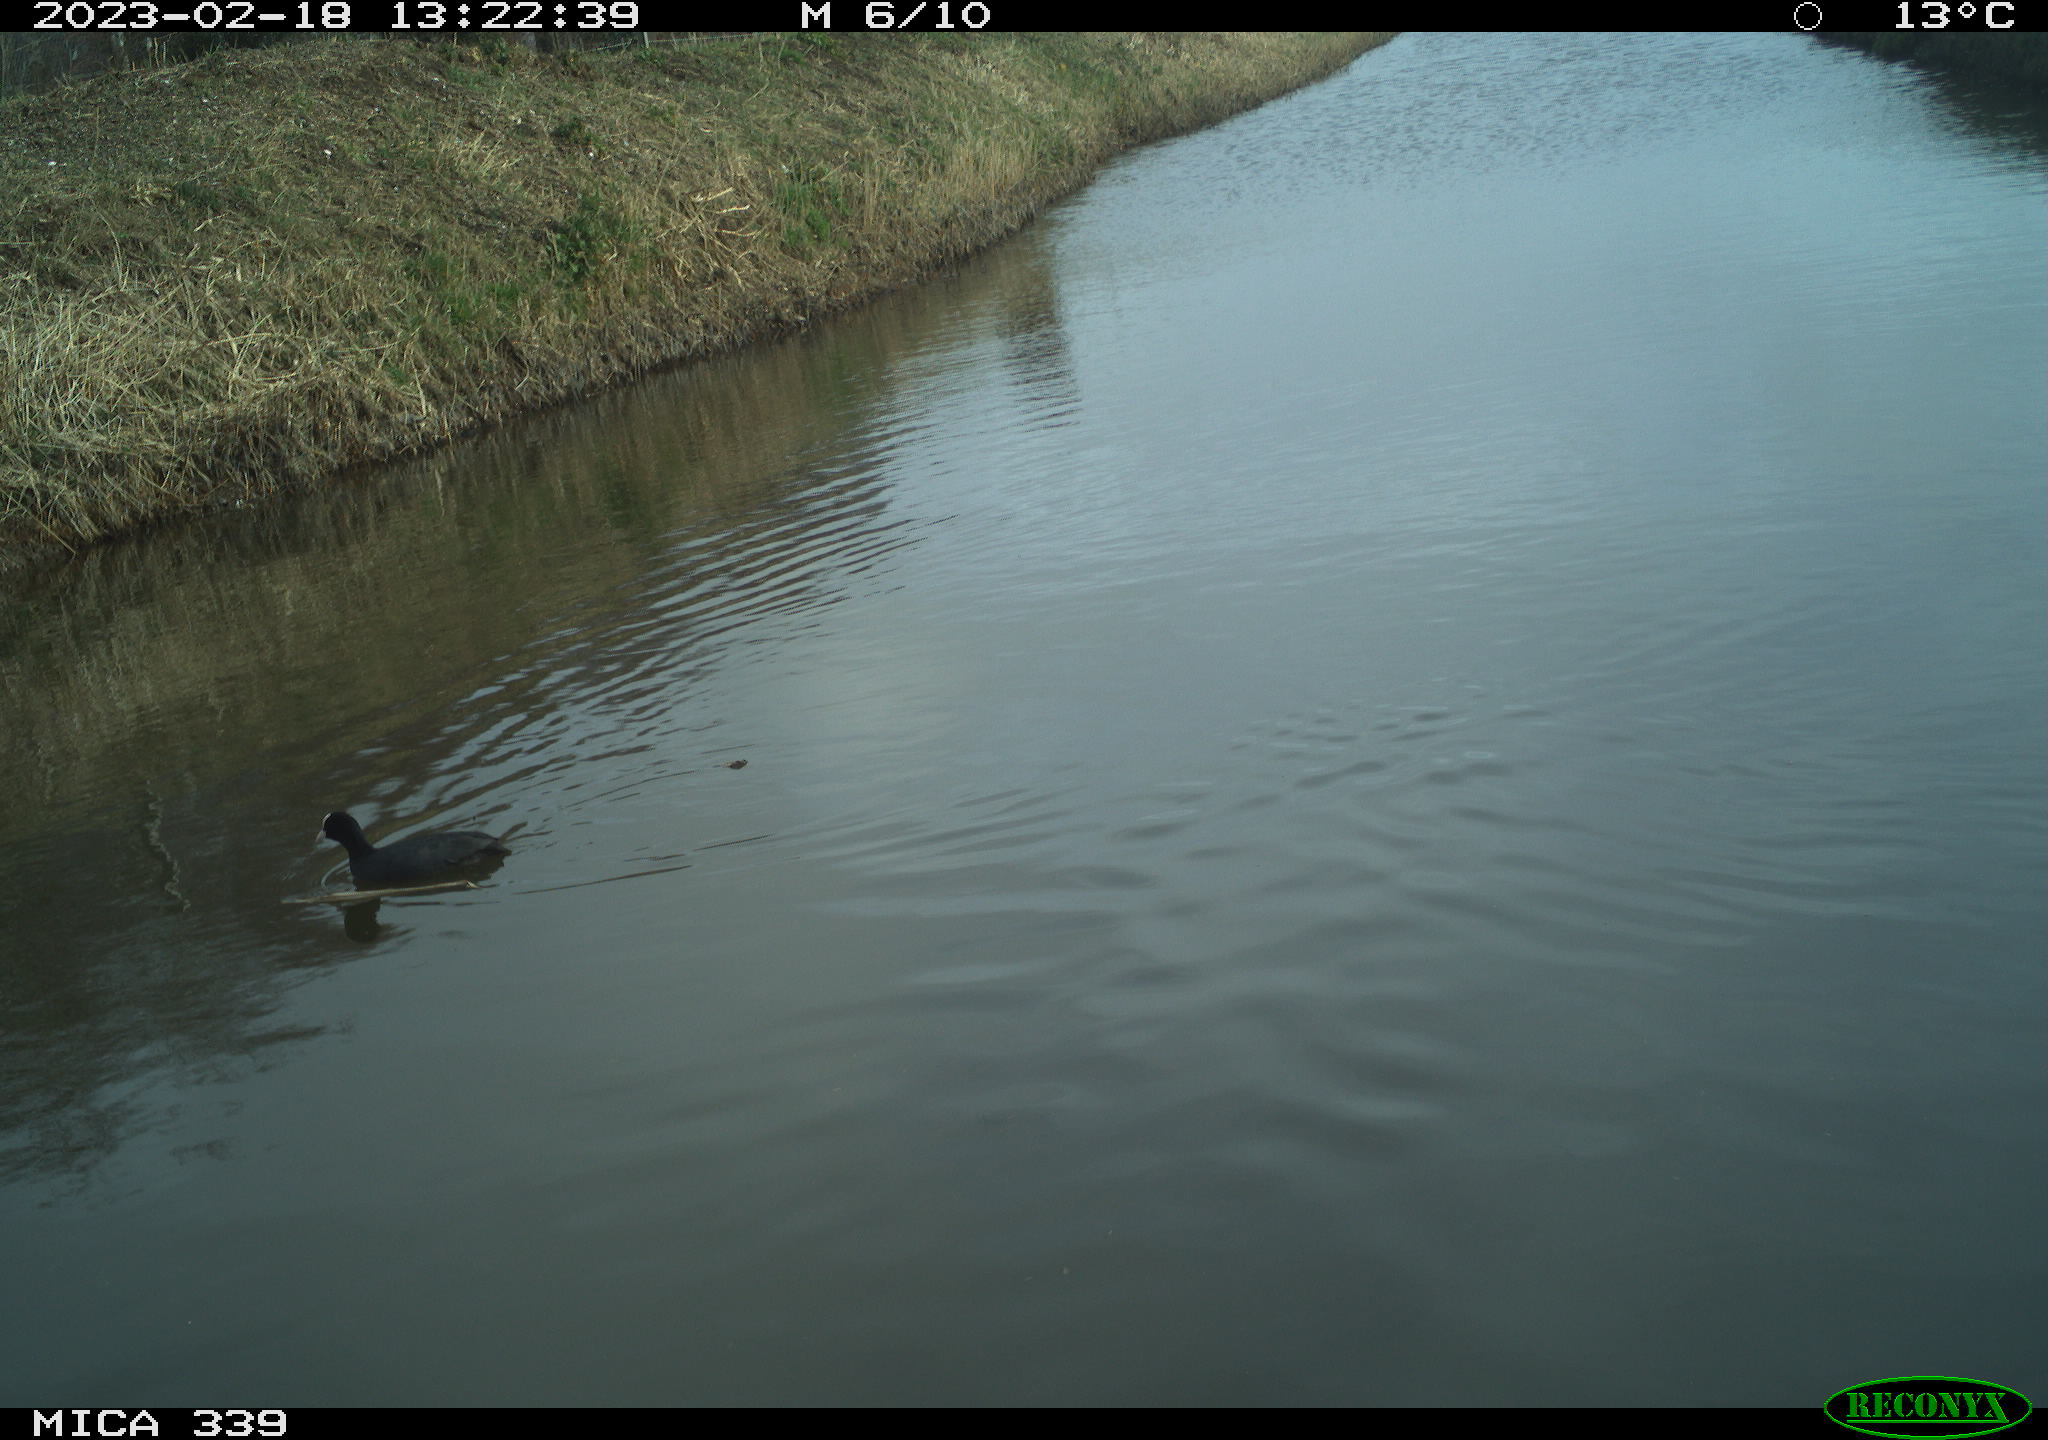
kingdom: Animalia
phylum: Chordata
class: Aves
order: Gruiformes
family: Rallidae
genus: Fulica
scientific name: Fulica atra
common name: Eurasian coot
